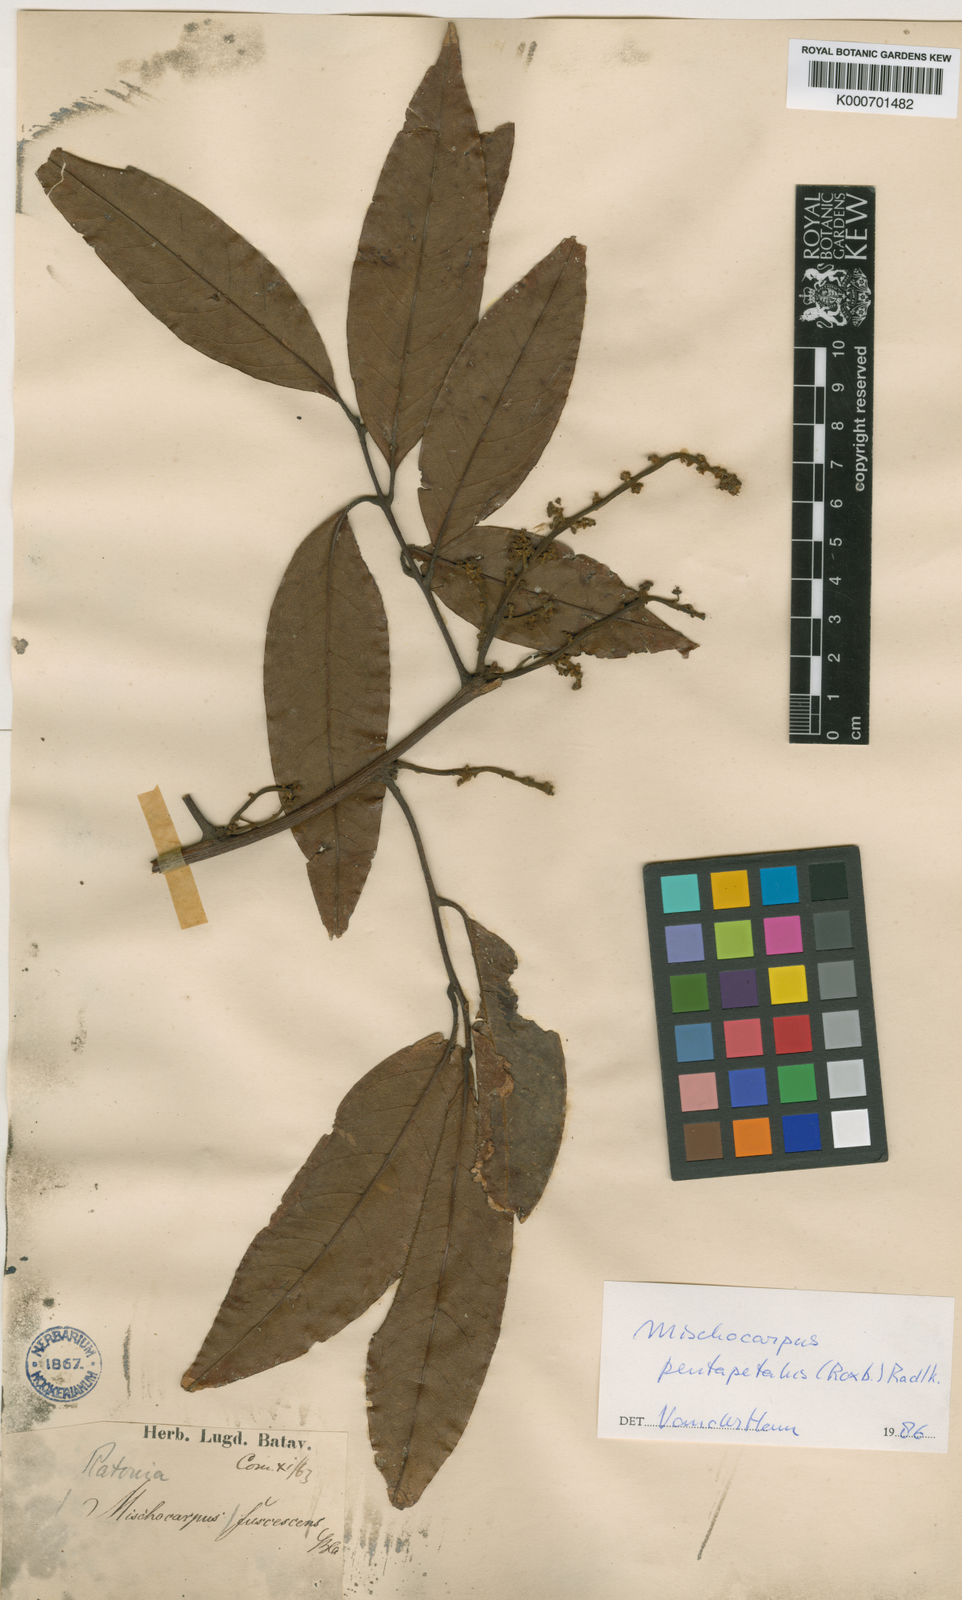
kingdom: Plantae
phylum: Tracheophyta
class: Magnoliopsida
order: Sapindales
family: Sapindaceae
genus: Mischocarpus
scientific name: Mischocarpus pentapetalus
